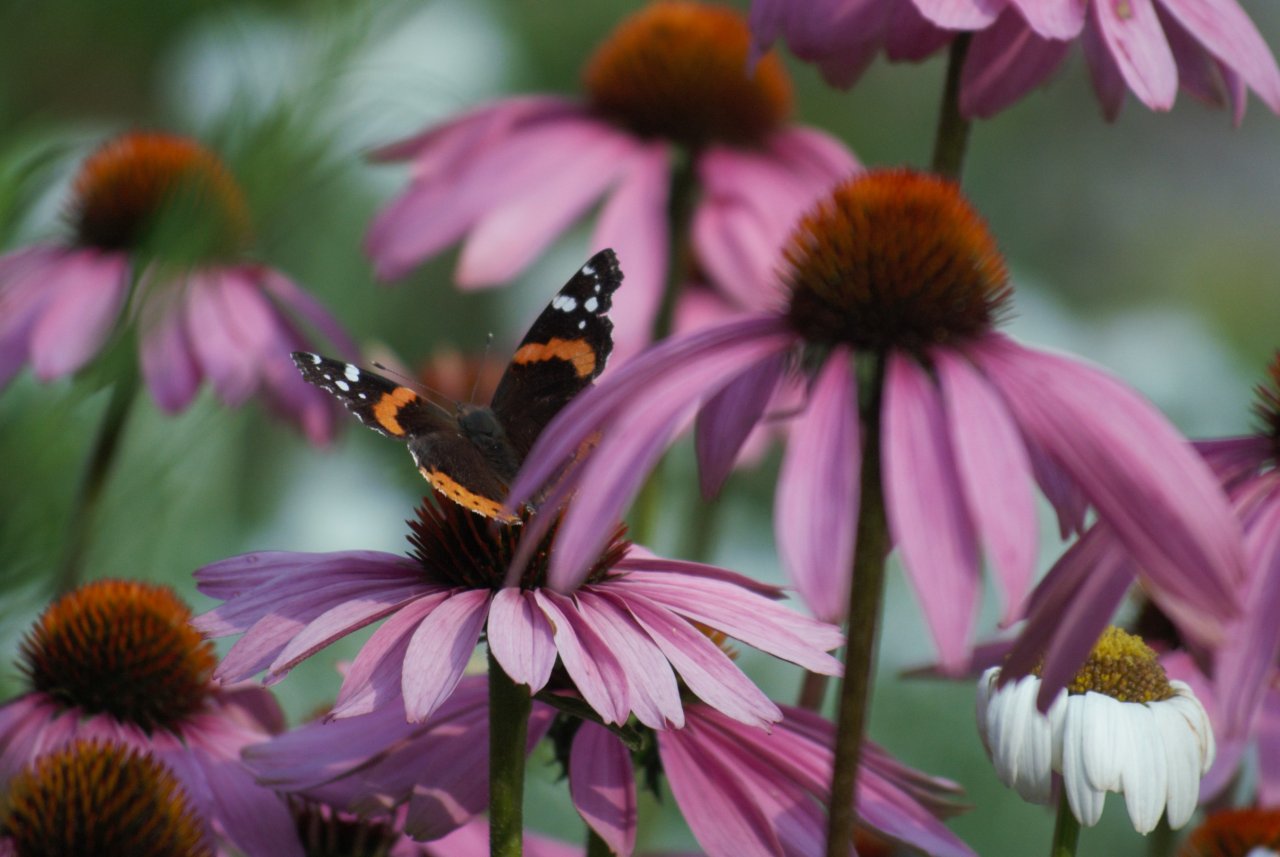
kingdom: Animalia
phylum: Arthropoda
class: Insecta
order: Lepidoptera
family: Nymphalidae
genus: Vanessa
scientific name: Vanessa atalanta
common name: Red Admiral
